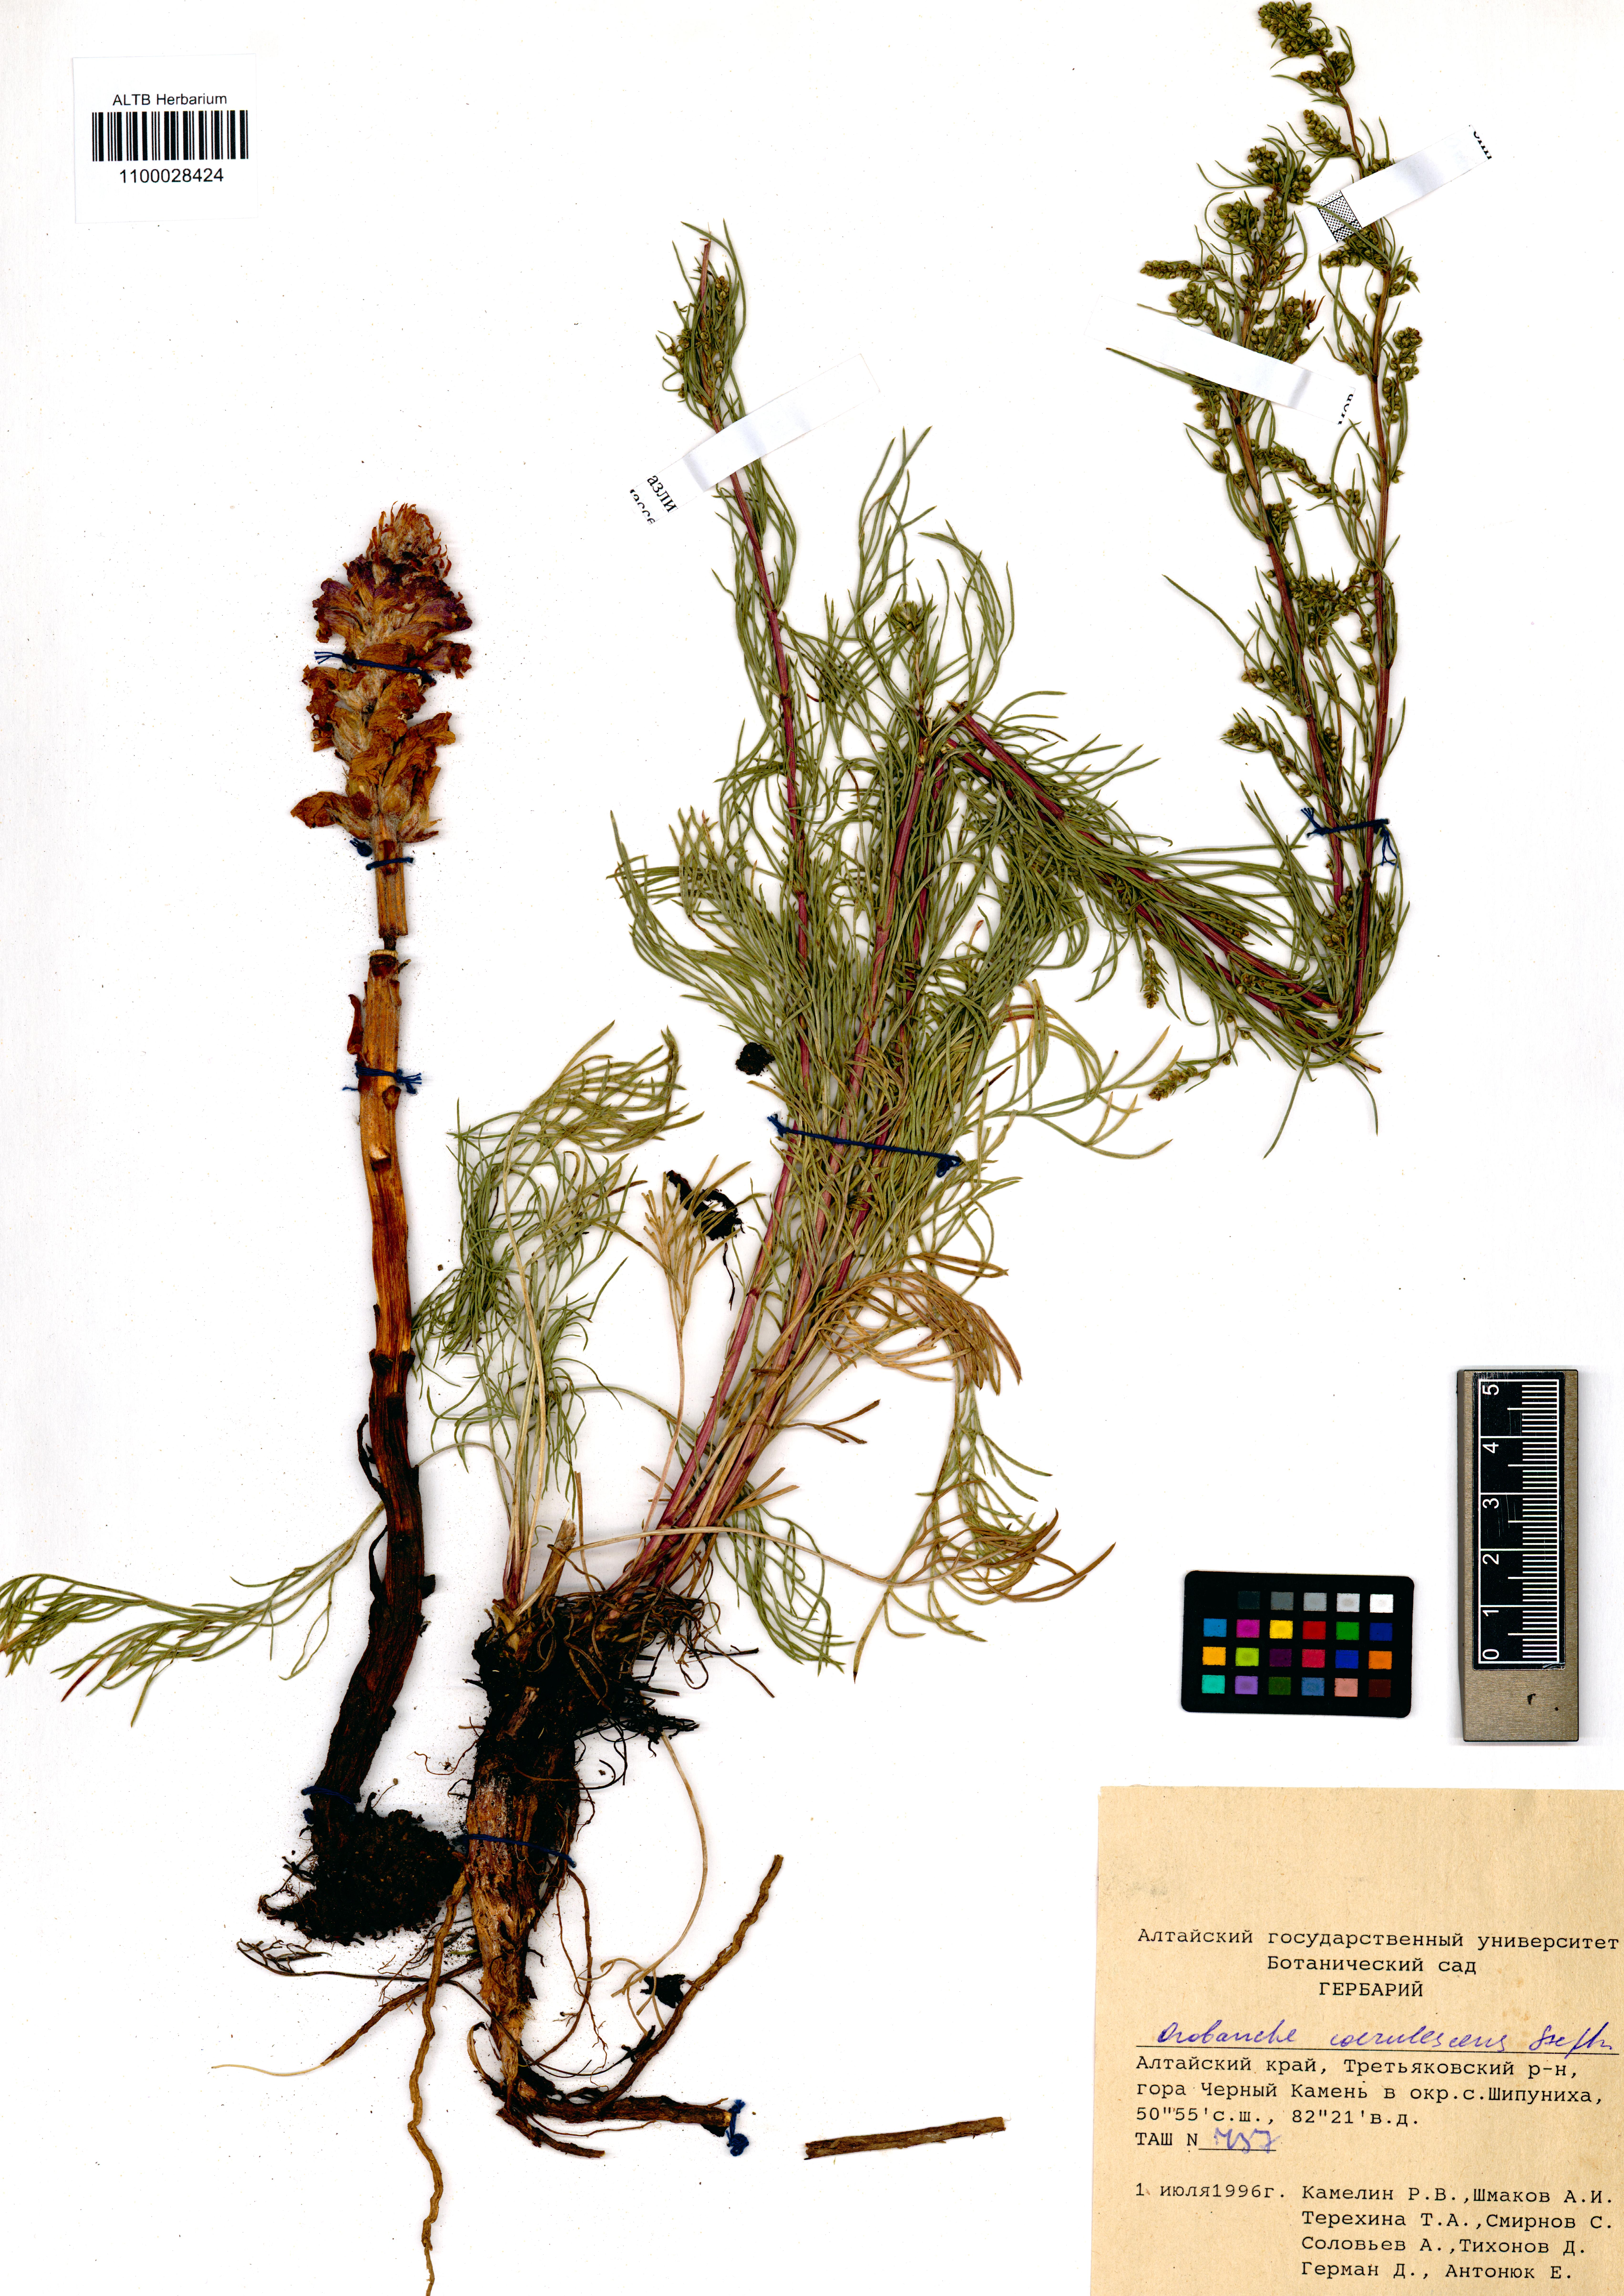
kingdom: Plantae
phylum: Tracheophyta
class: Magnoliopsida
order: Lamiales
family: Orobanchaceae
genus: Orobanche
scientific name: Orobanche coerulescens
